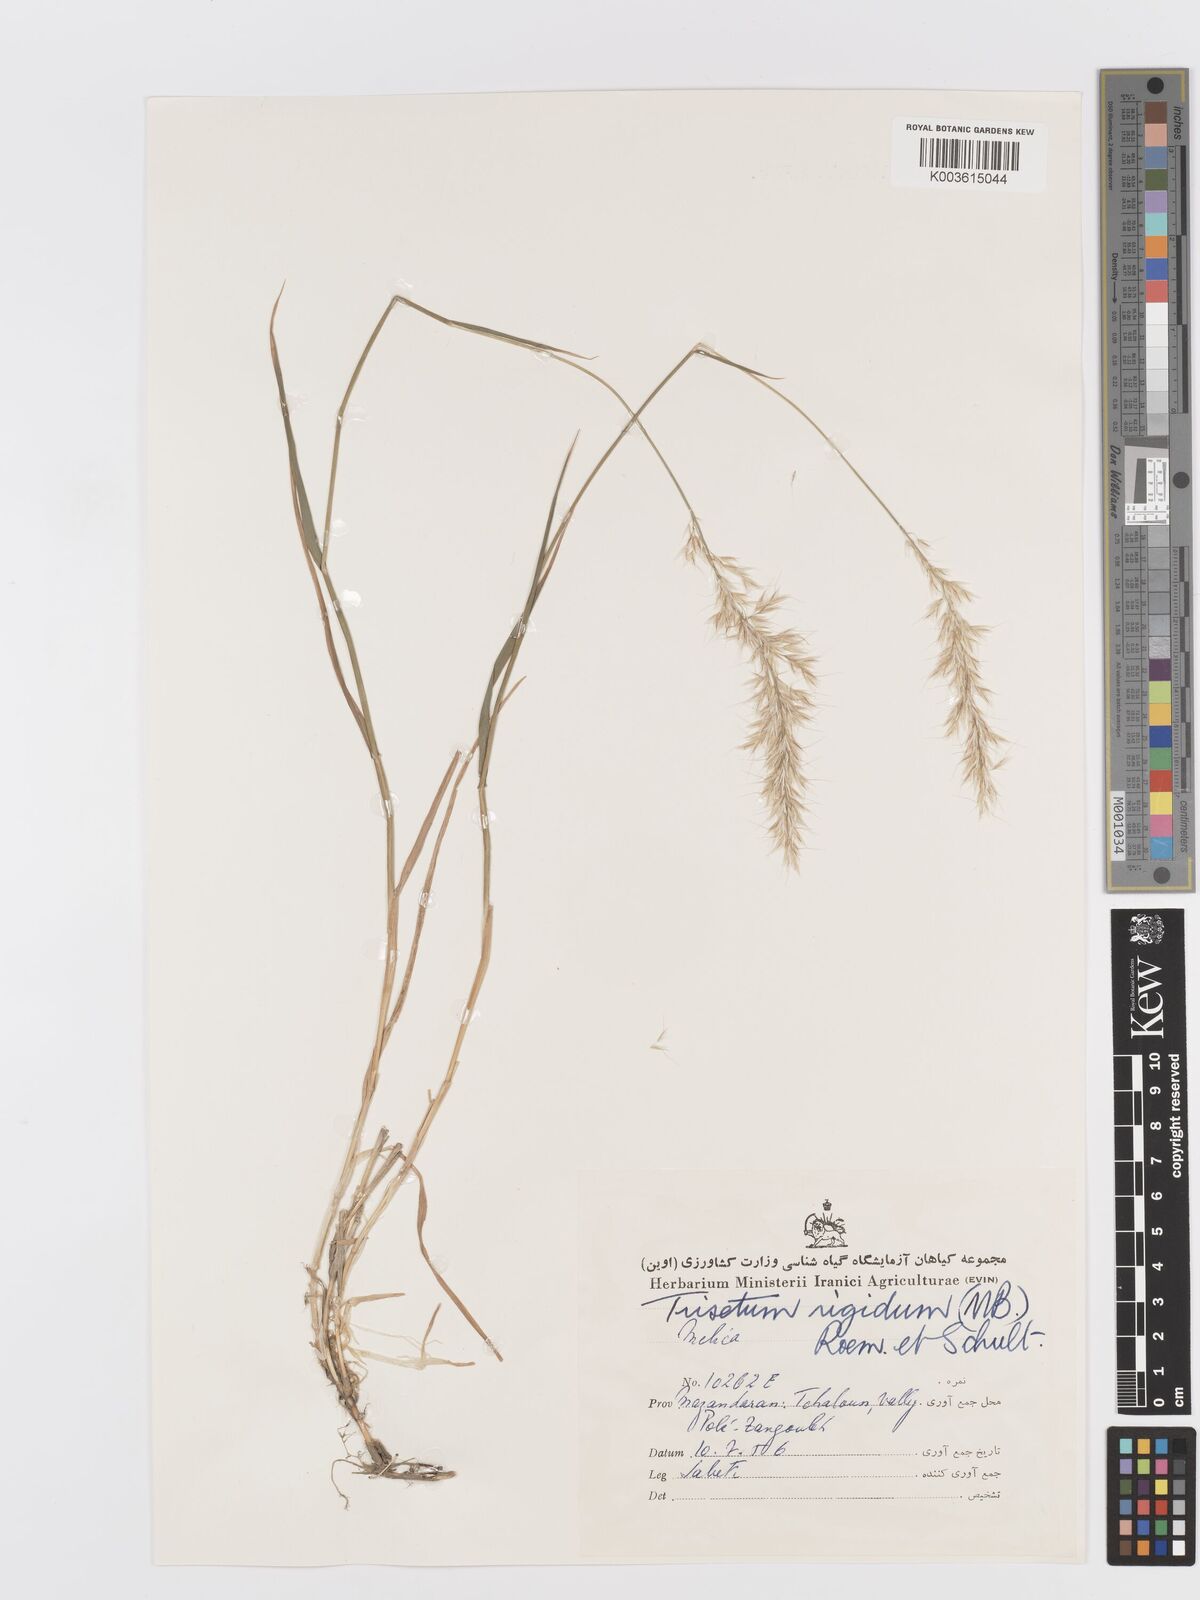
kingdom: Plantae
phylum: Tracheophyta
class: Liliopsida
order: Poales
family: Poaceae
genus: Trisetum
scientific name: Trisetum rigidum
